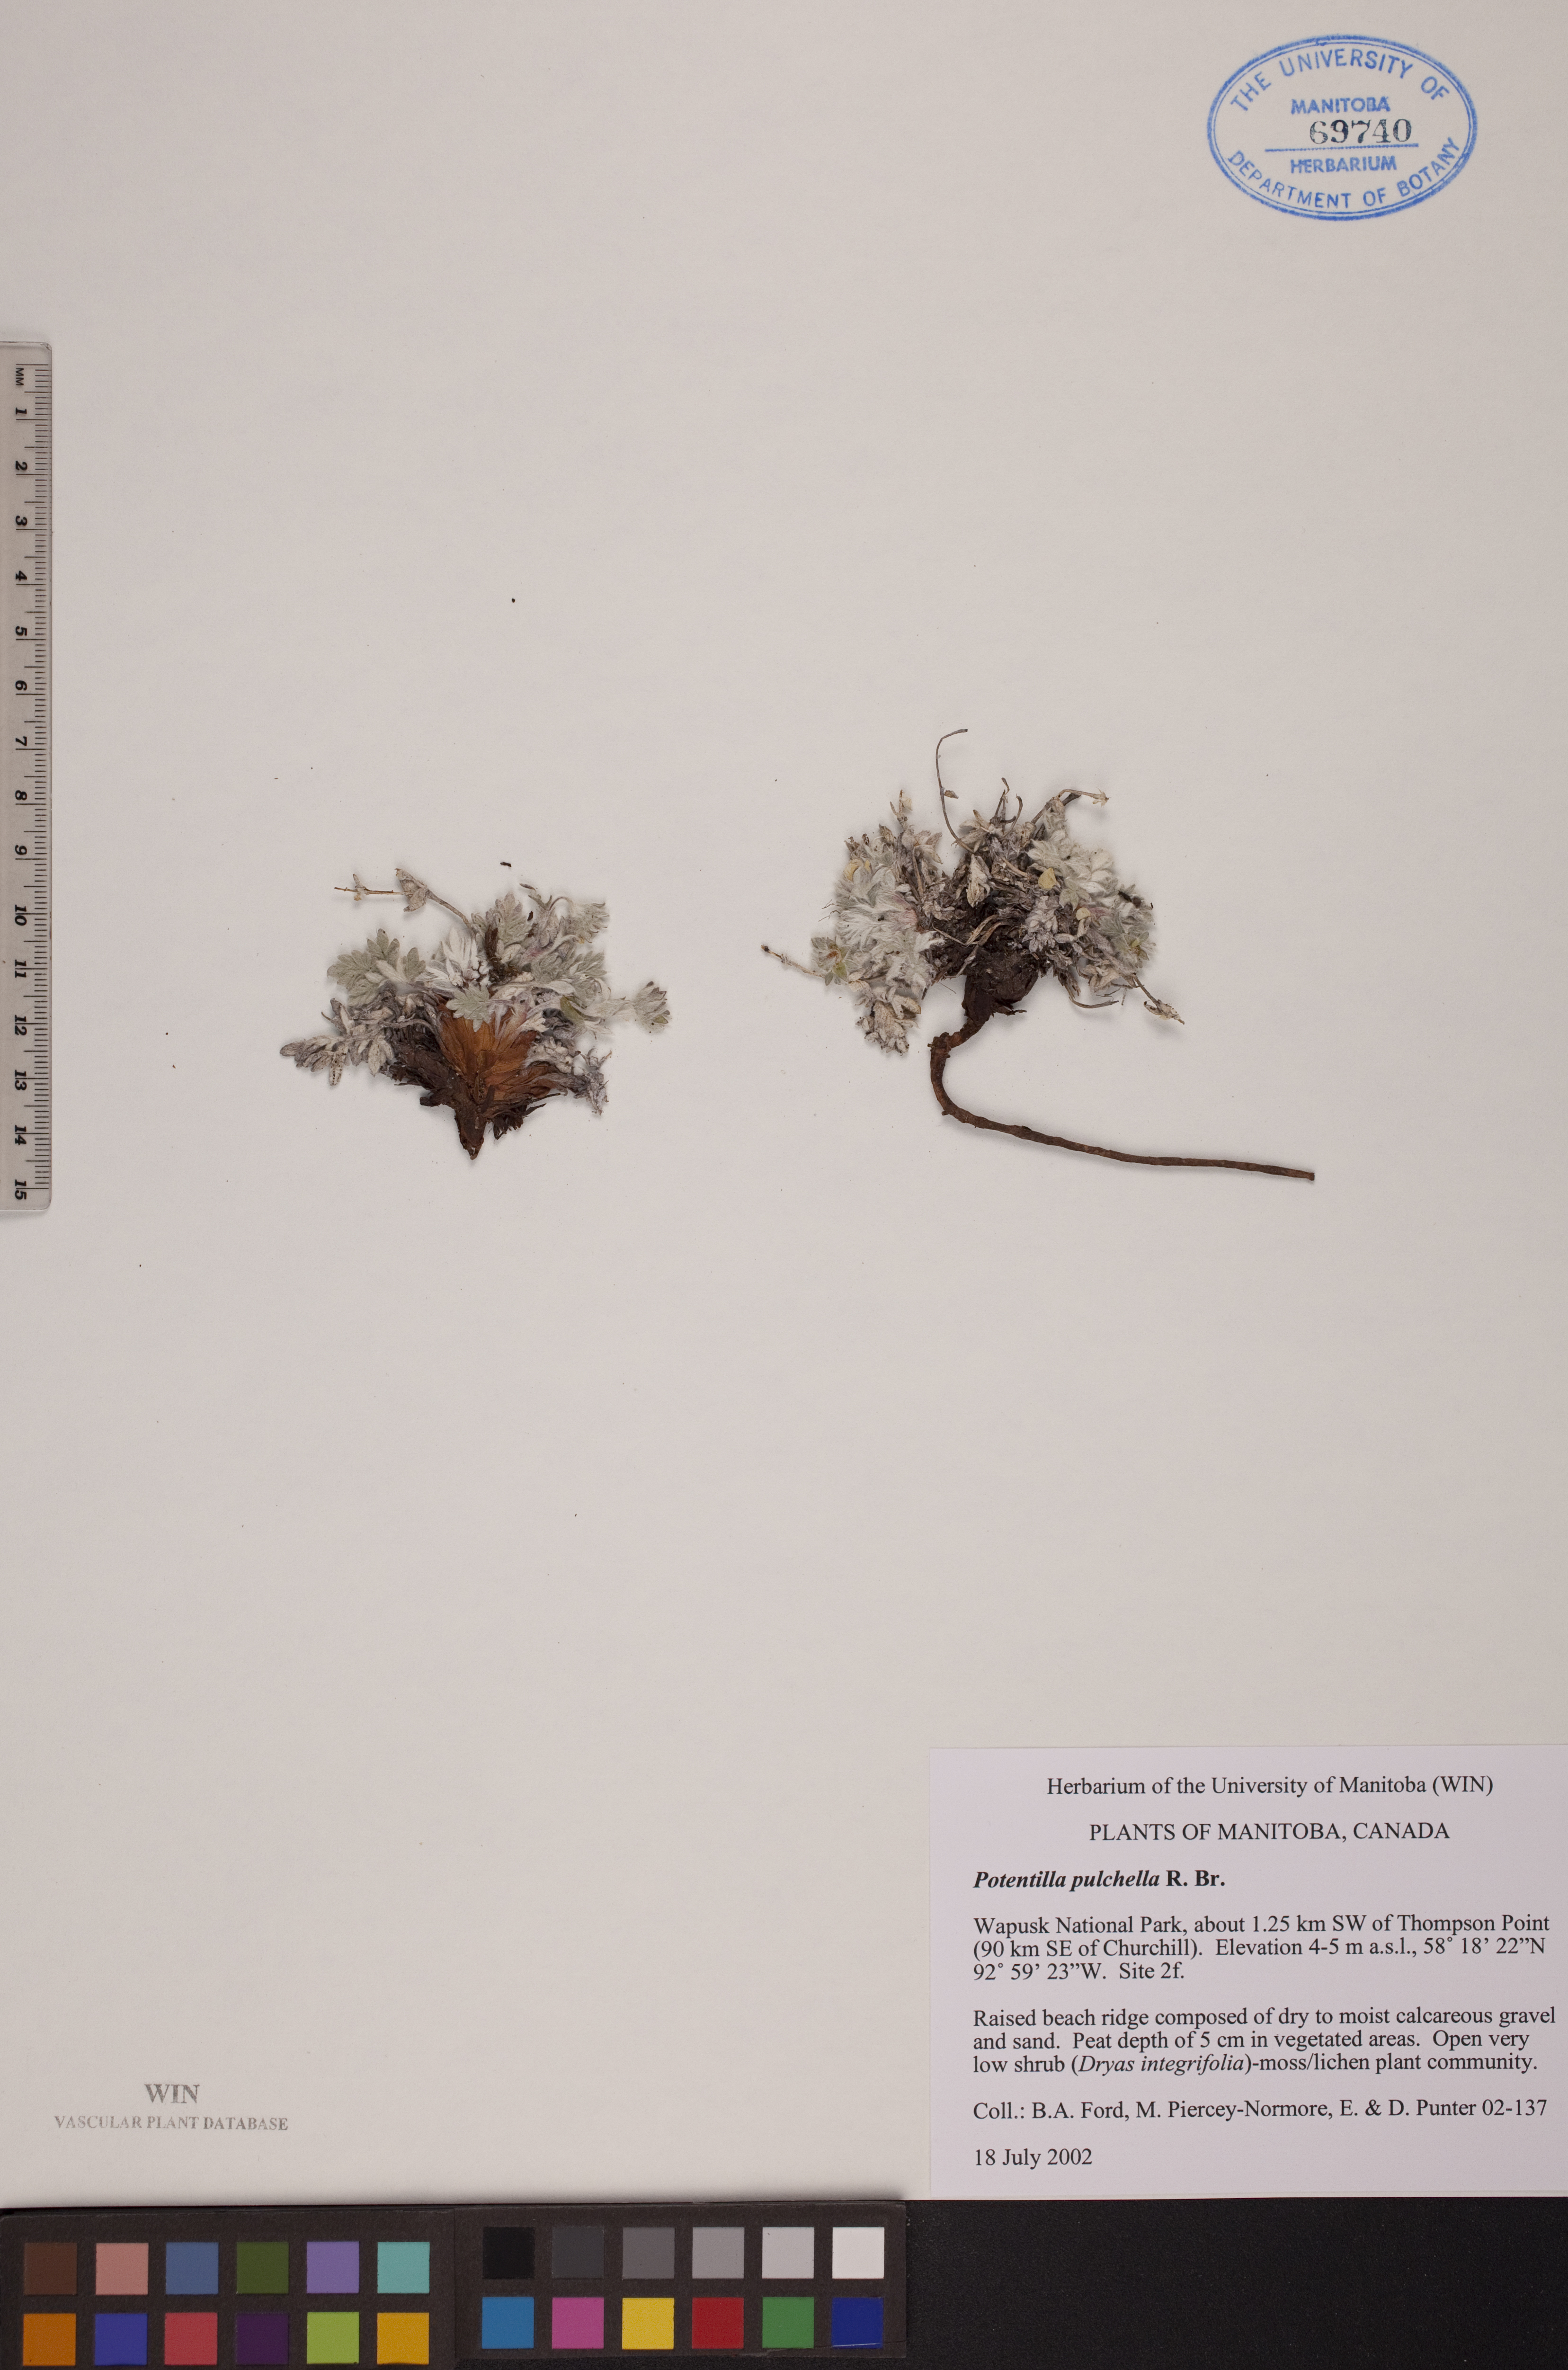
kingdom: Plantae
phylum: Tracheophyta
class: Magnoliopsida
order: Rosales
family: Rosaceae
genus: Potentilla
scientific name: Potentilla pulchella
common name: Pretty cinquefoil
